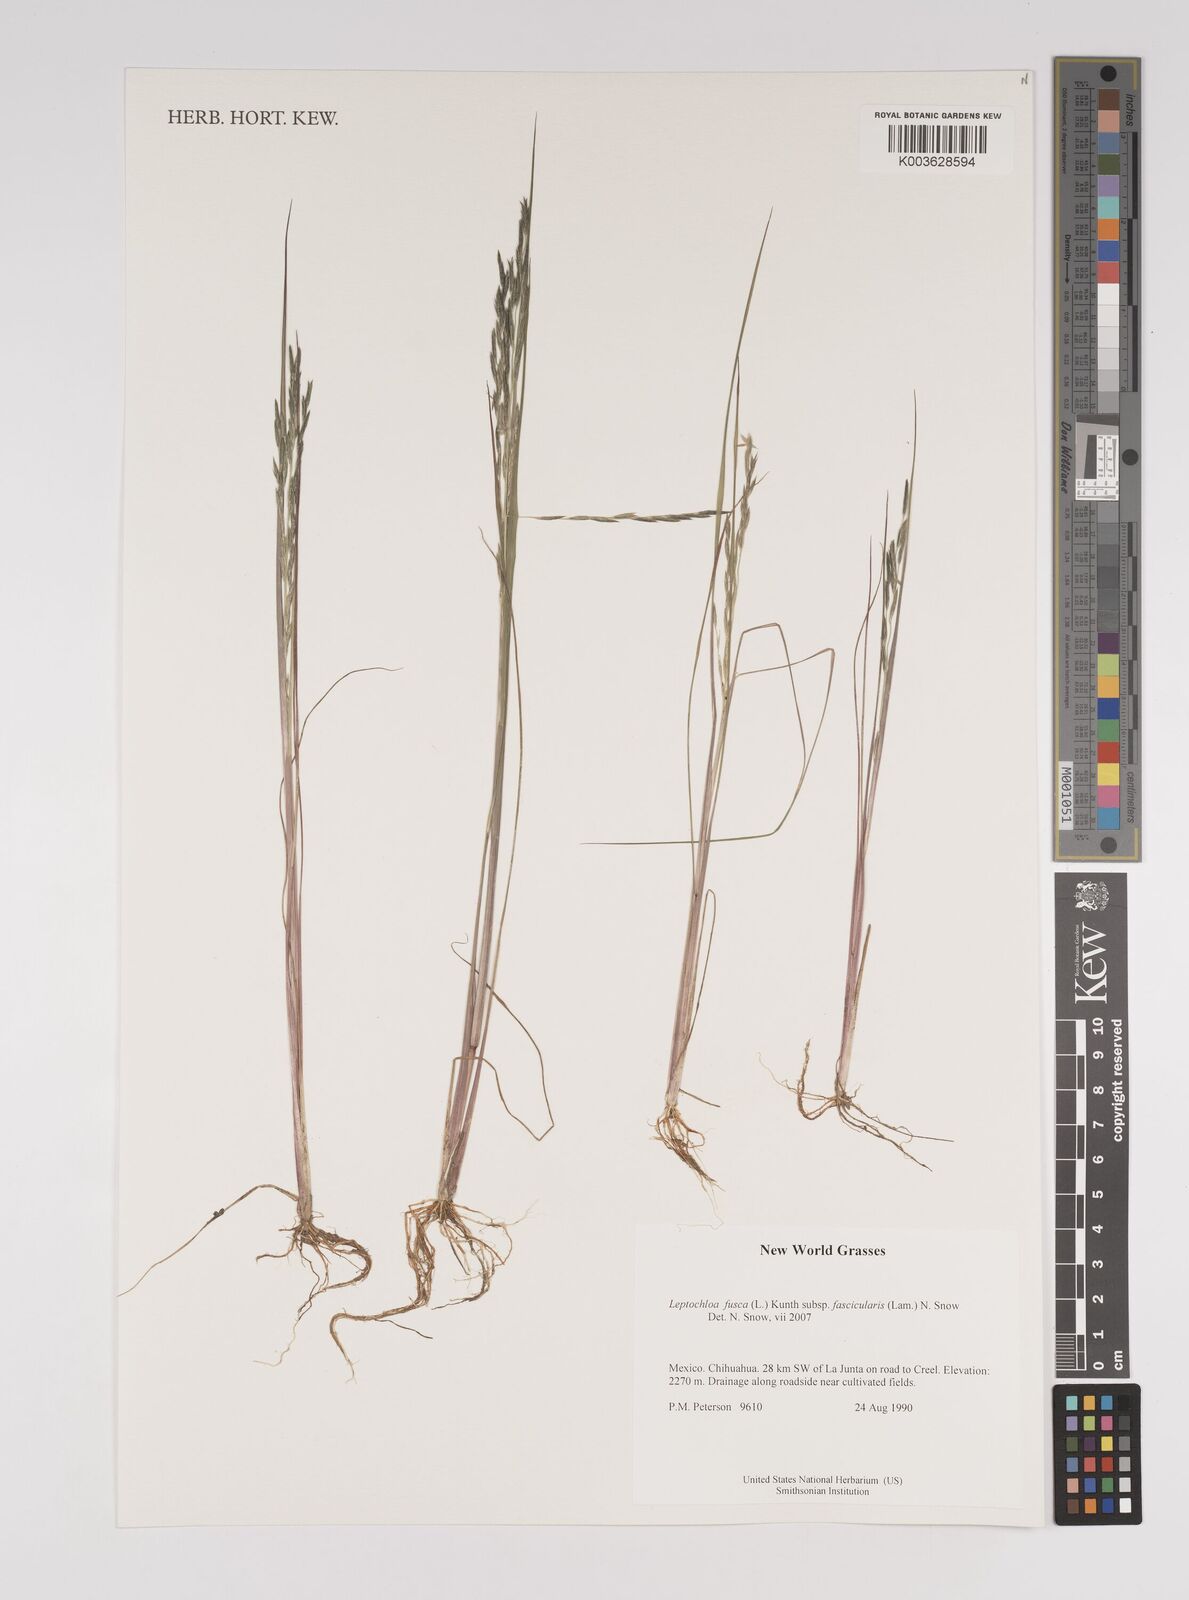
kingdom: Plantae
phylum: Tracheophyta
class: Liliopsida
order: Poales
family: Poaceae
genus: Diplachne
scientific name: Diplachne fusca
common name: Brown beetle grass
